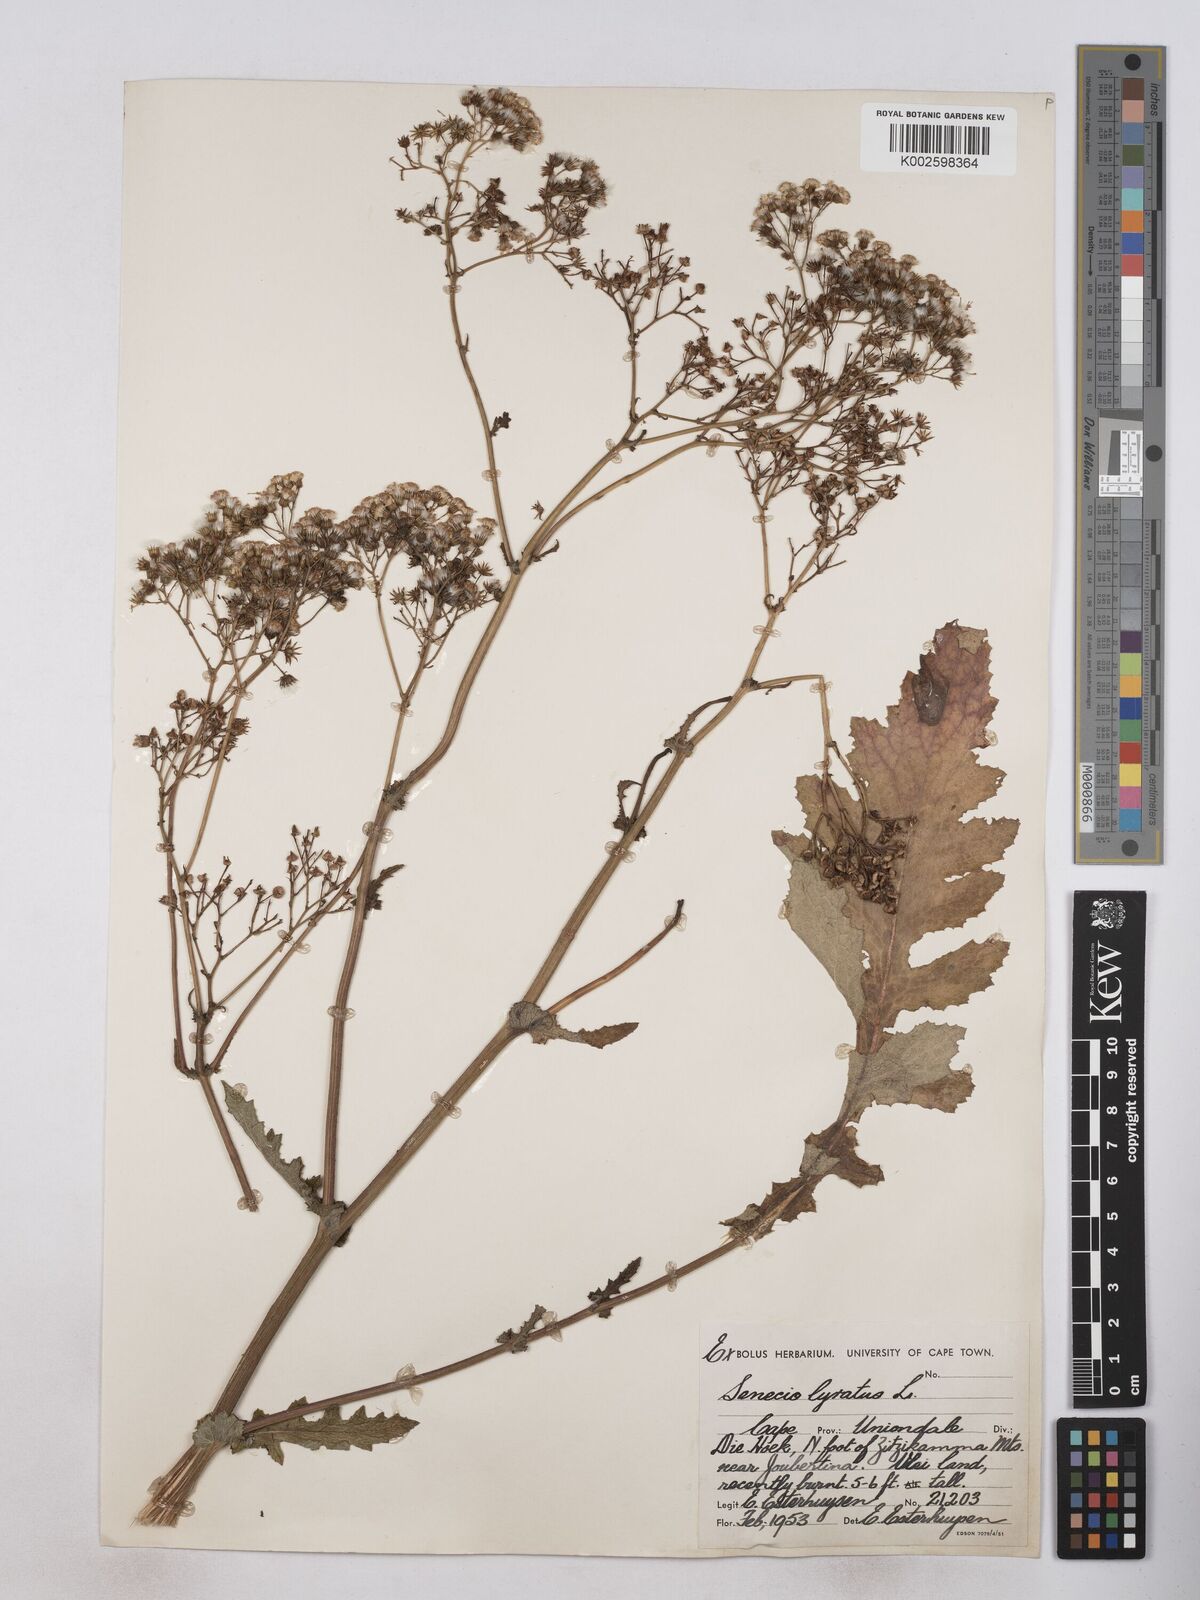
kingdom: Plantae
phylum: Tracheophyta
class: Magnoliopsida
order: Asterales
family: Asteraceae
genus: Senecio
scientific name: Senecio anapetes
